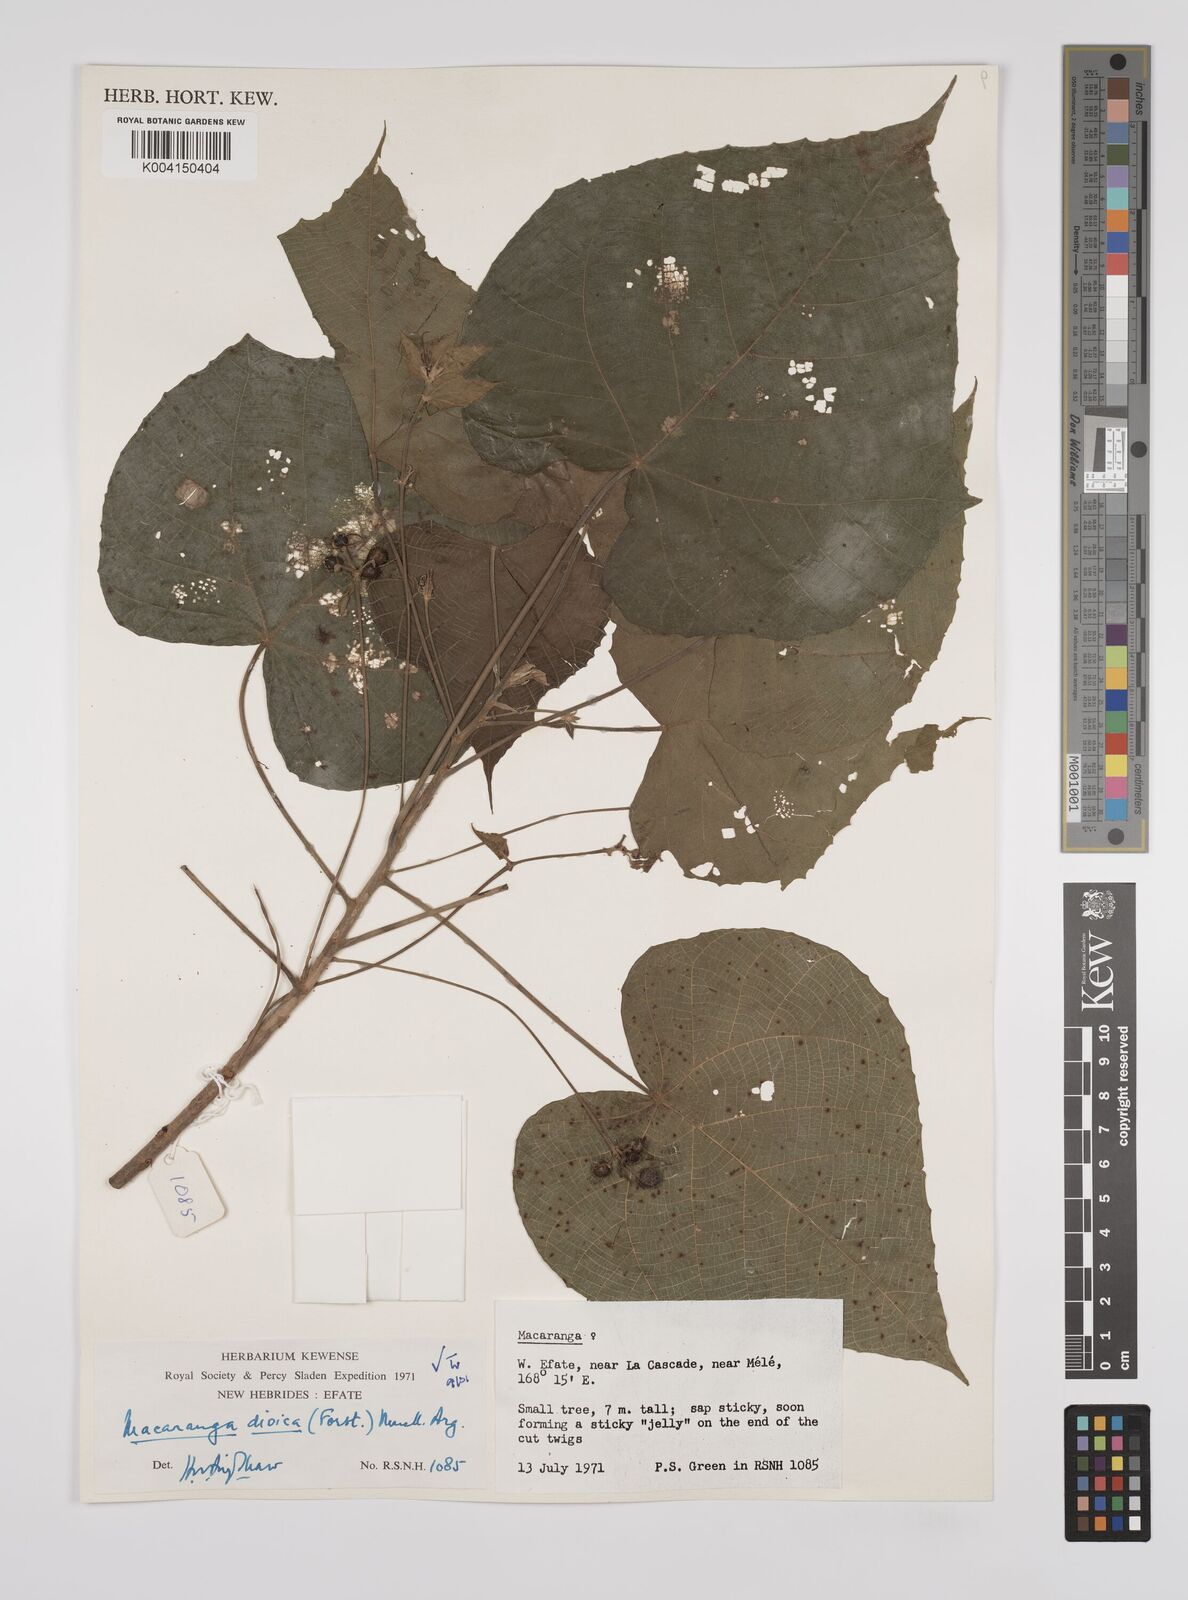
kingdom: Plantae
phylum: Tracheophyta
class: Magnoliopsida
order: Malpighiales
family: Euphorbiaceae
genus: Macaranga
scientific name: Macaranga dioica
